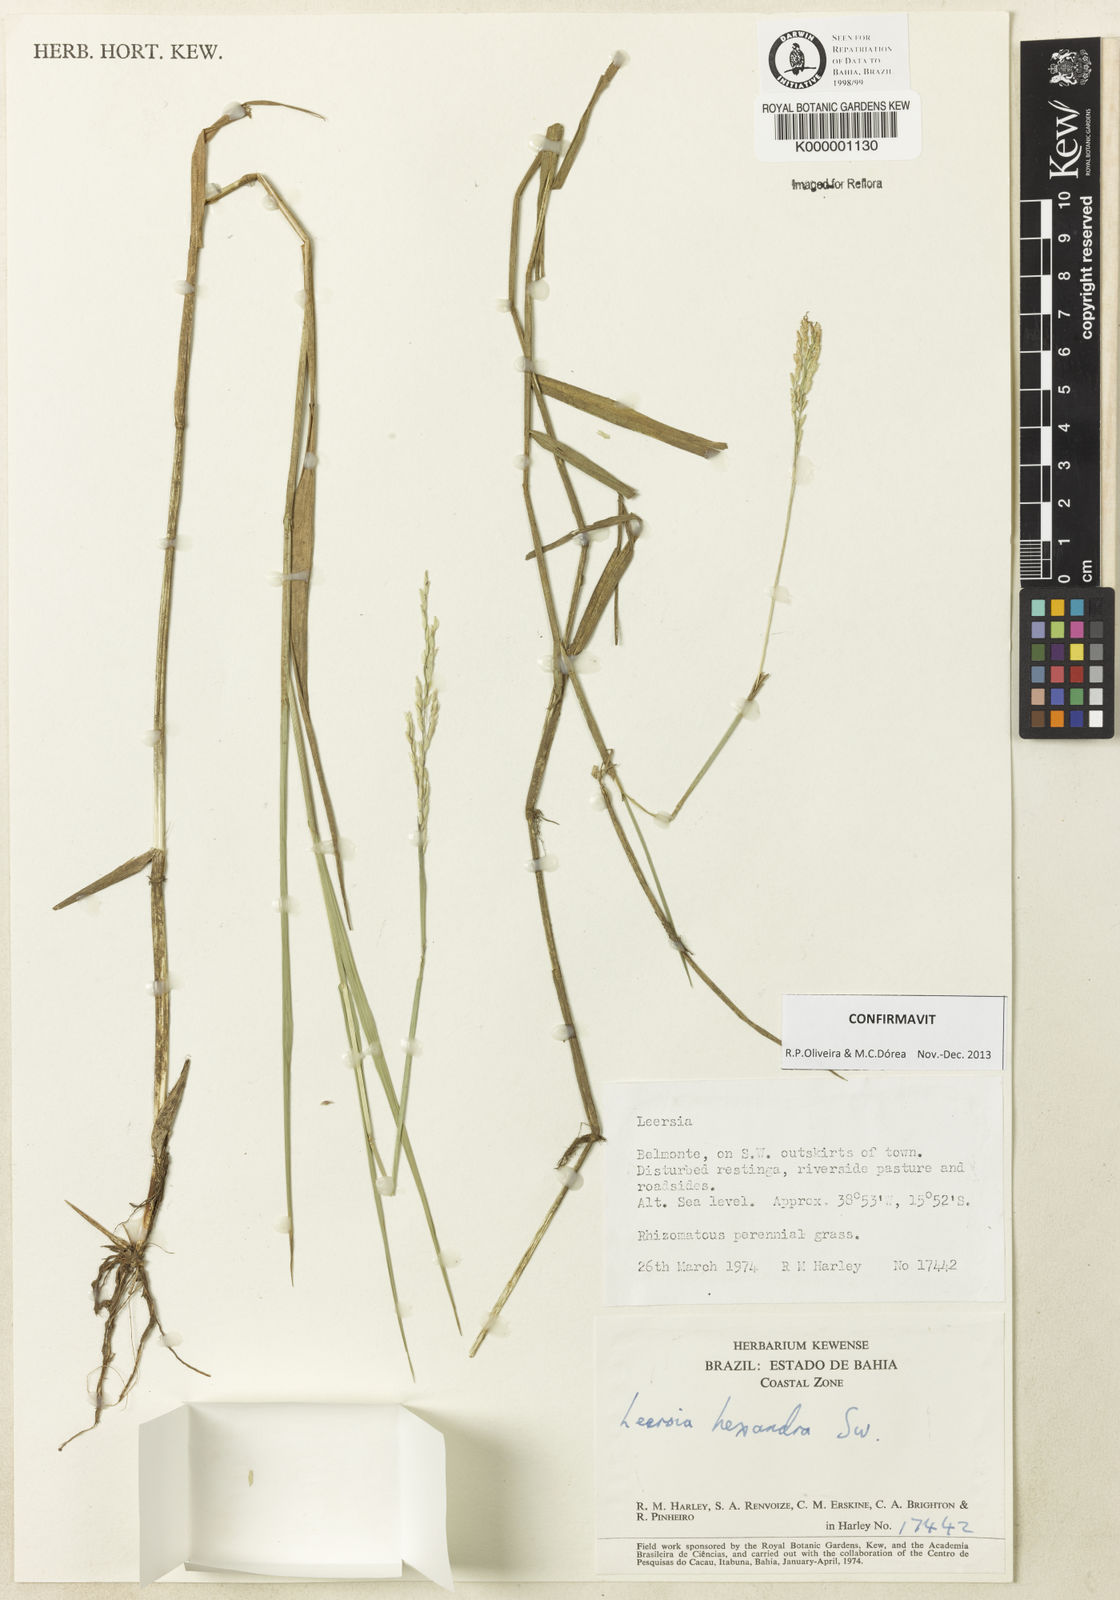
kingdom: Plantae
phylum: Tracheophyta
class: Liliopsida
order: Poales
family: Poaceae
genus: Leersia
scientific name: Leersia hexandra
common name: Southern cut grass
